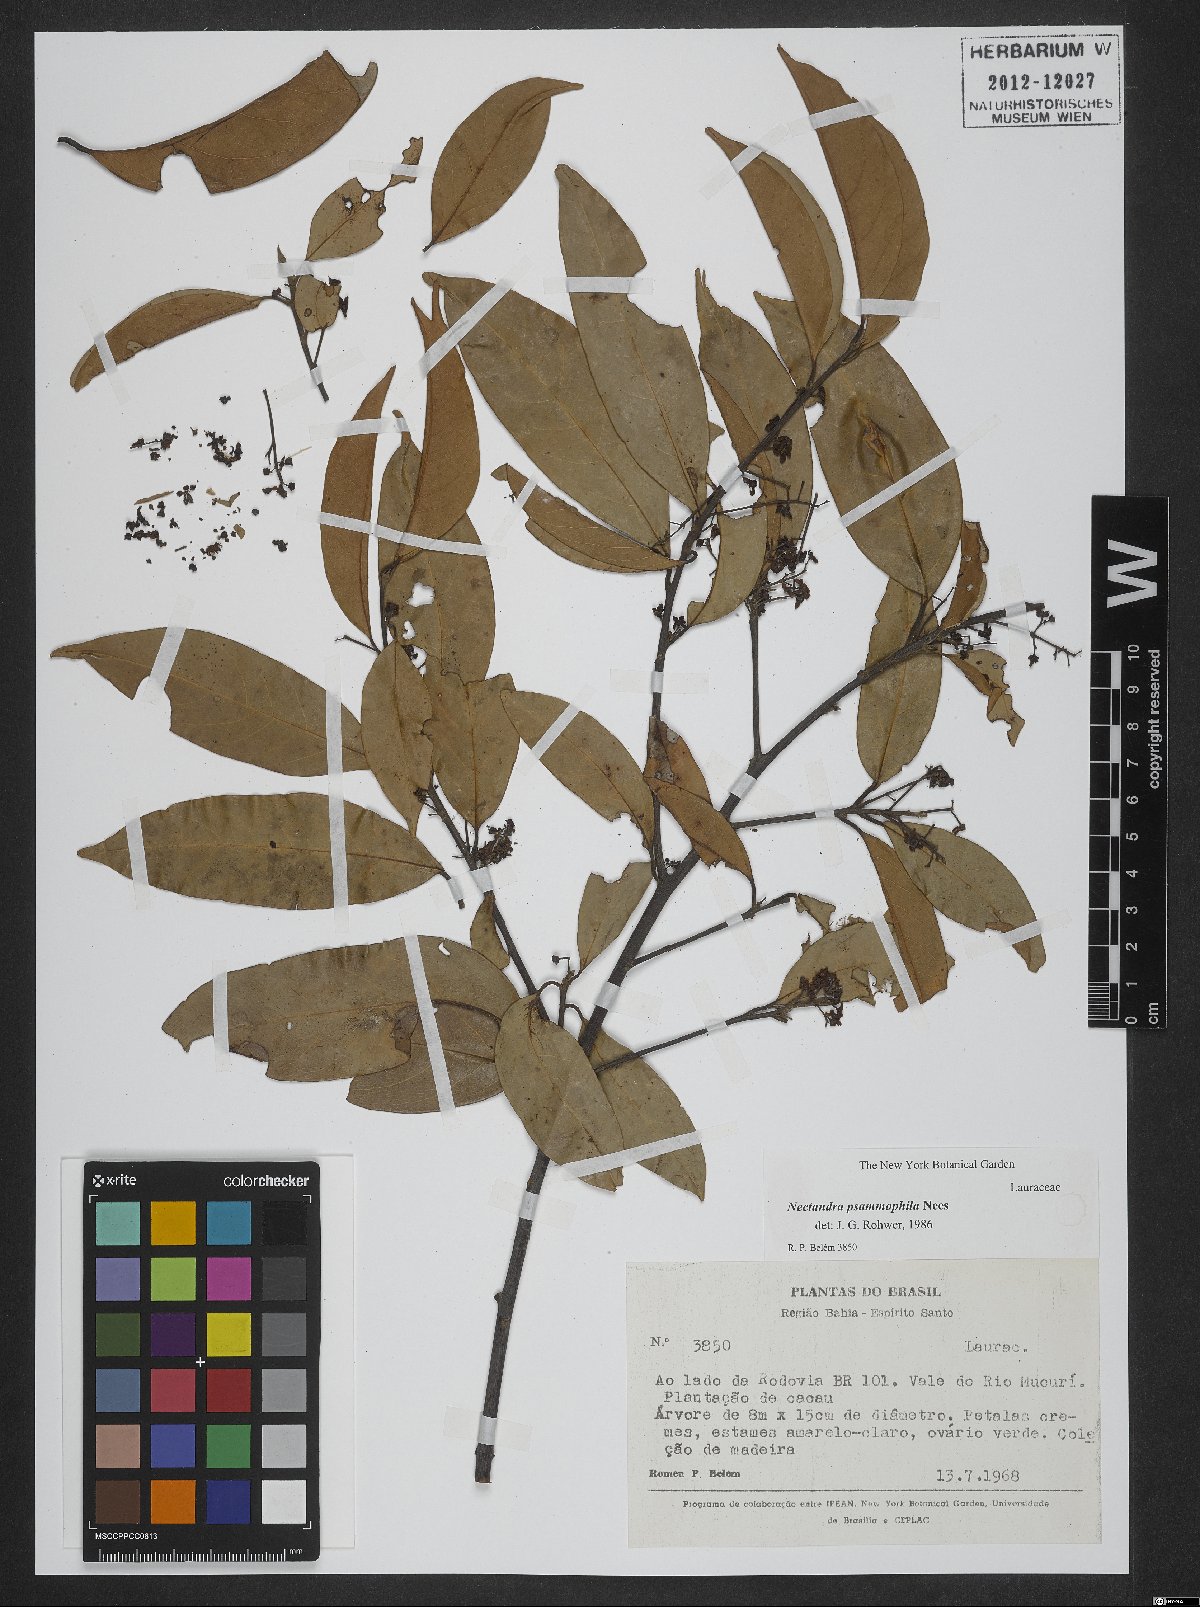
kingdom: Plantae
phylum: Tracheophyta
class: Magnoliopsida
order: Laurales
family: Lauraceae
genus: Nectandra
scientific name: Nectandra psammophila
